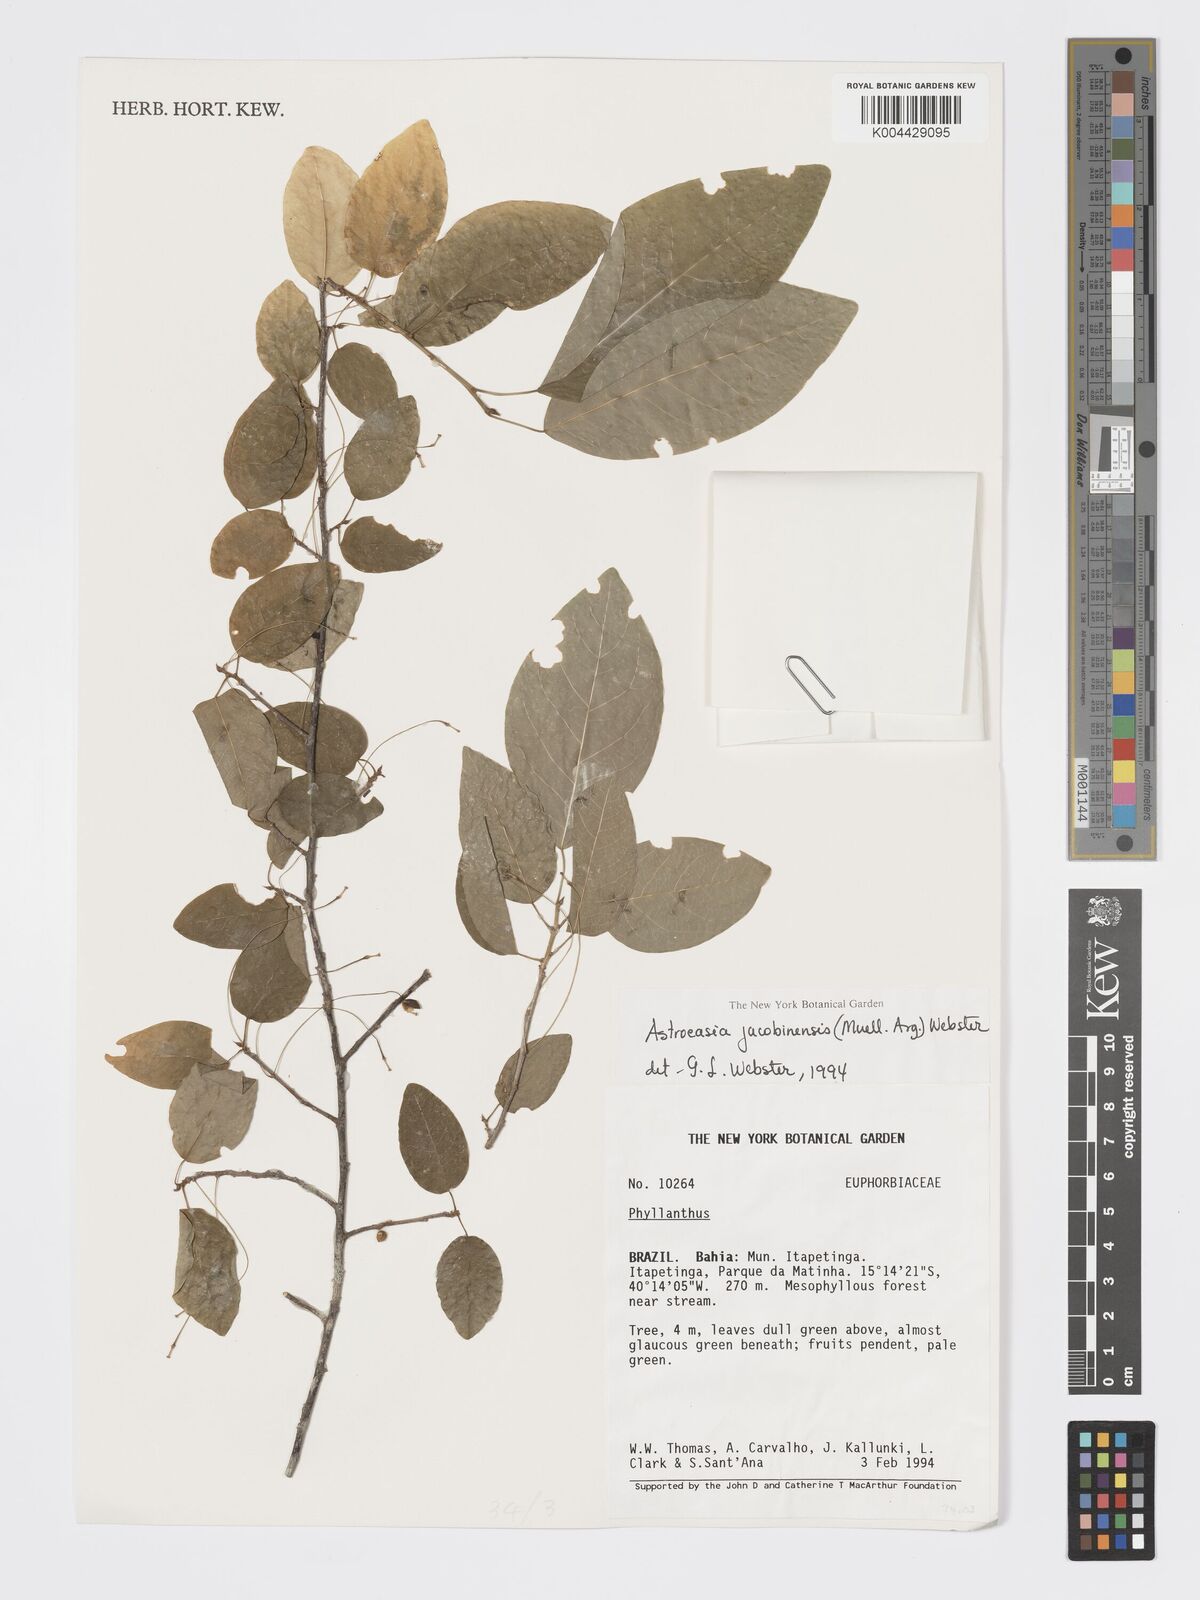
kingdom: Plantae
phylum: Tracheophyta
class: Magnoliopsida
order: Malpighiales
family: Phyllanthaceae
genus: Astrocasia
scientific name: Astrocasia jacobinensis
